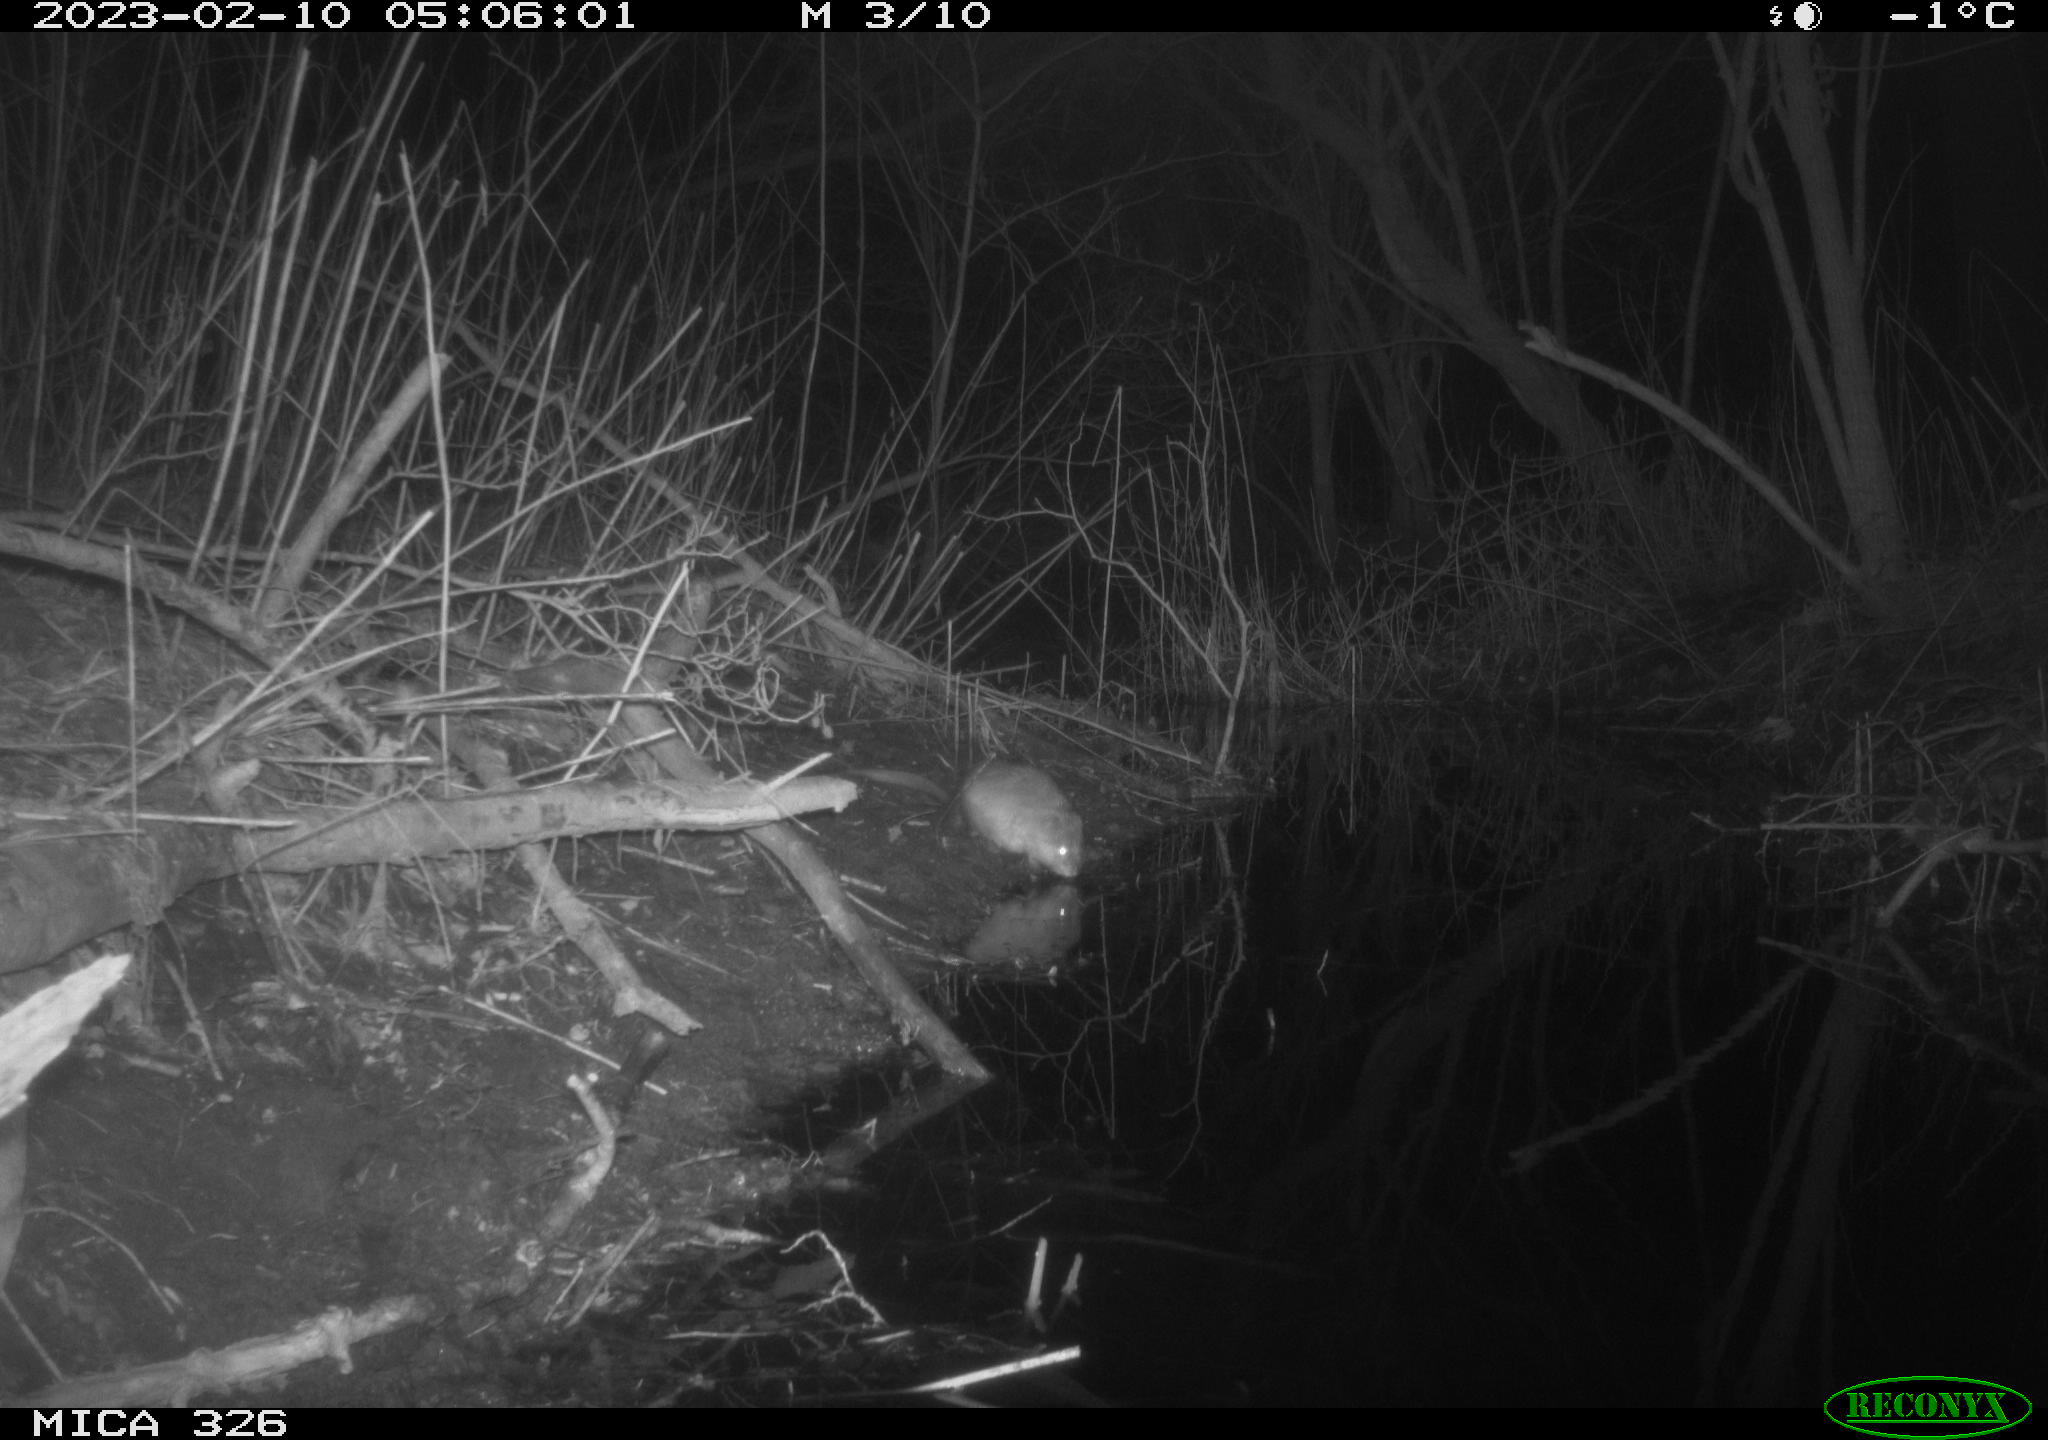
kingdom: Animalia
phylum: Chordata
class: Mammalia
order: Rodentia
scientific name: Rodentia
